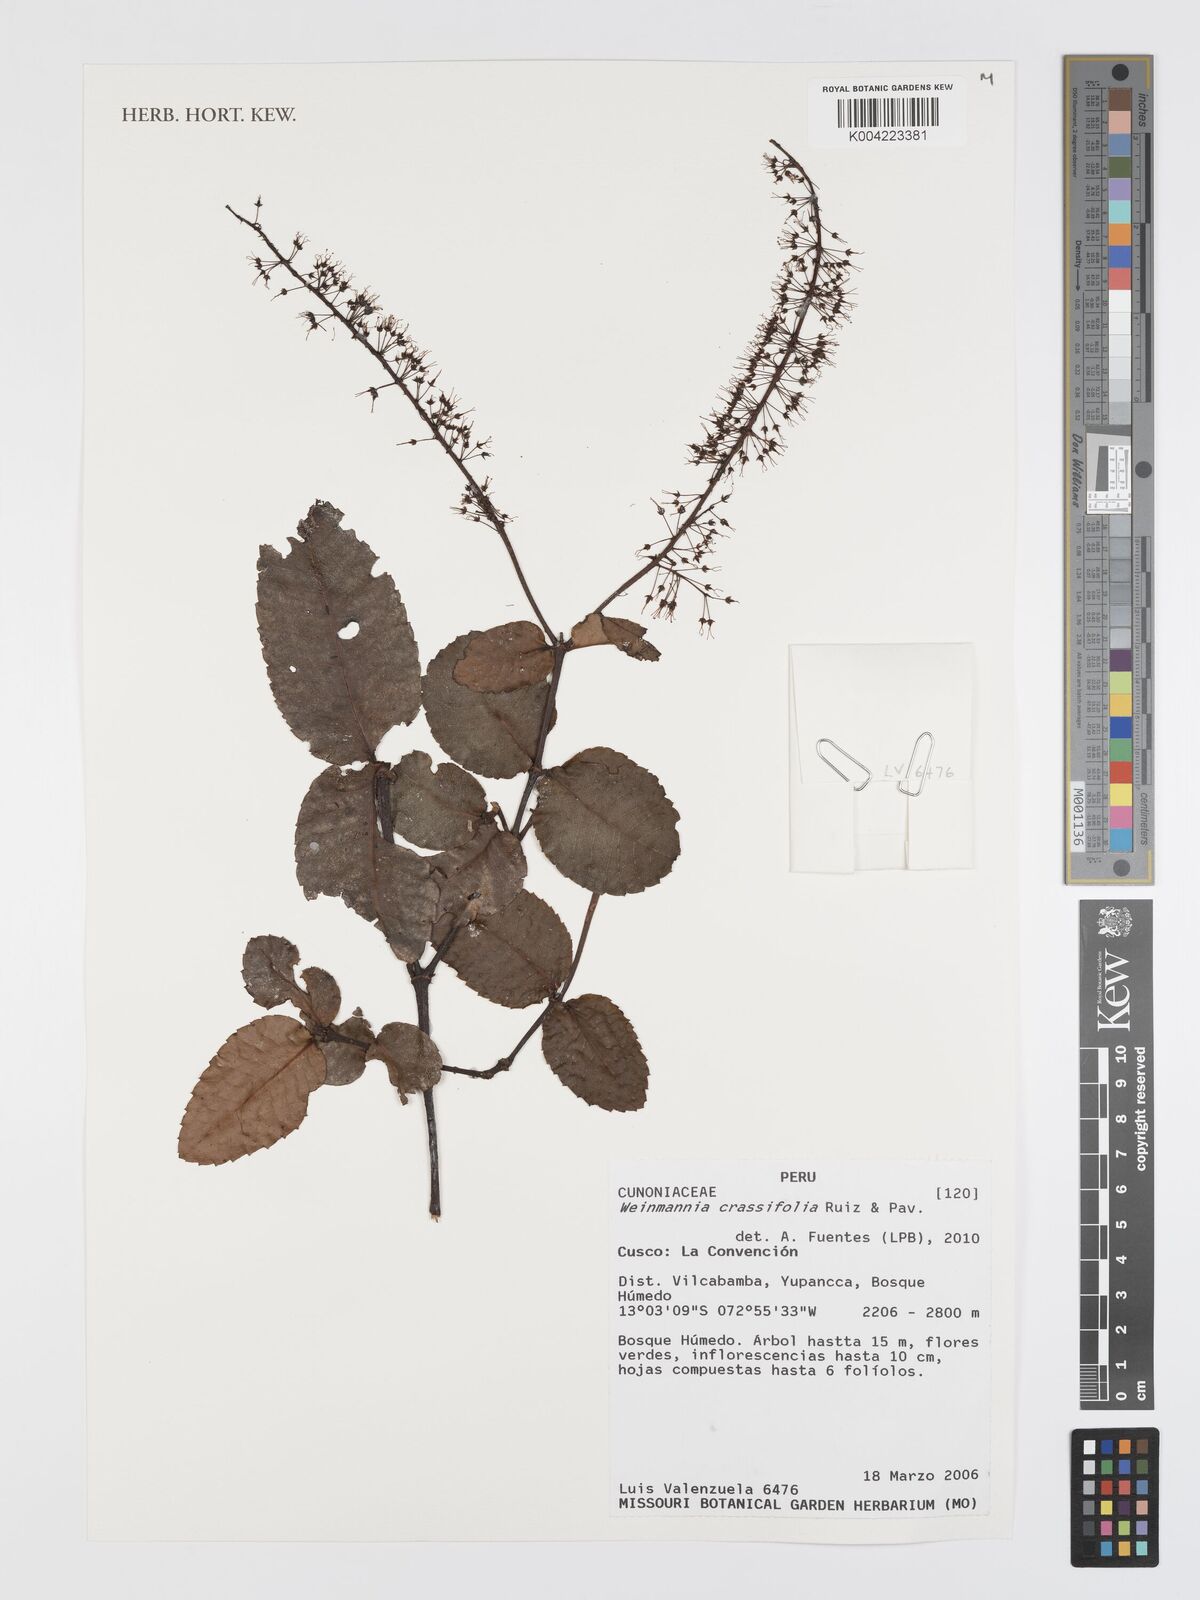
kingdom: Plantae
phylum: Tracheophyta
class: Magnoliopsida
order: Oxalidales
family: Cunoniaceae
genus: Weinmannia
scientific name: Weinmannia crassifolia
